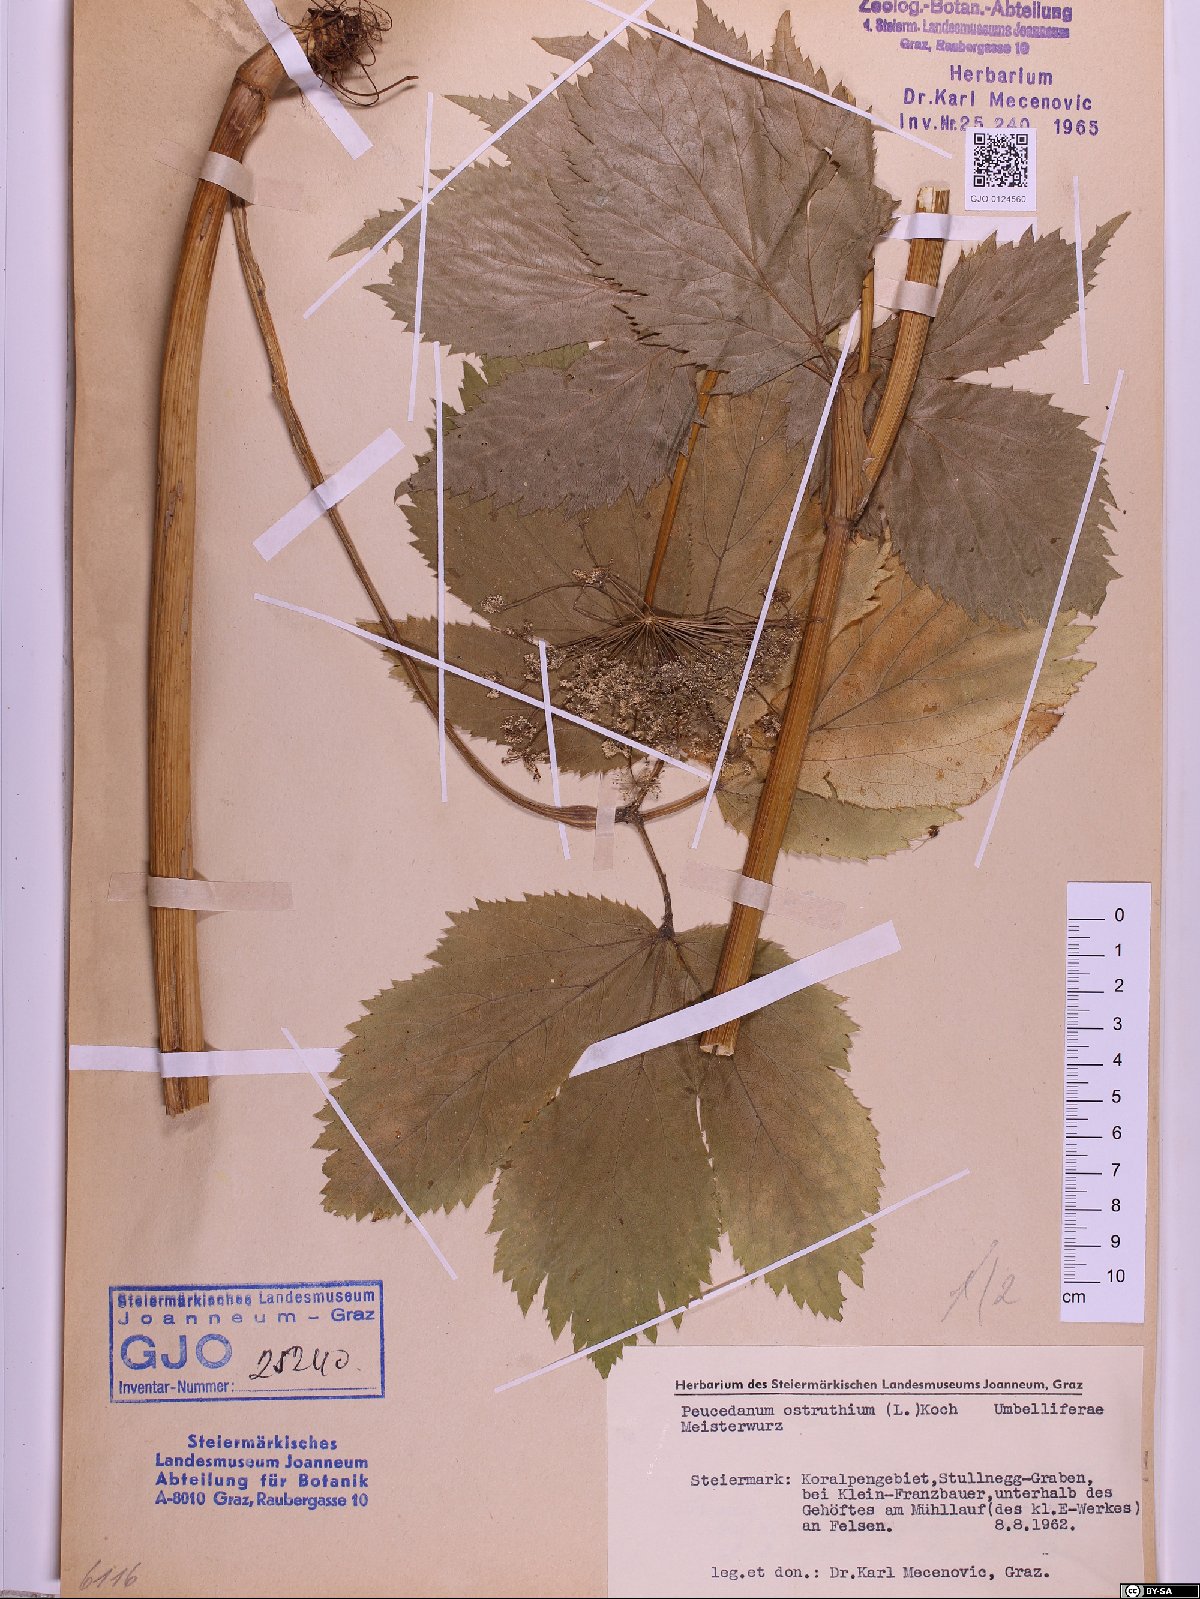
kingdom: Plantae
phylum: Tracheophyta
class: Magnoliopsida
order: Apiales
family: Apiaceae
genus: Imperatoria
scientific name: Imperatoria ostruthium
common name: Masterwort
